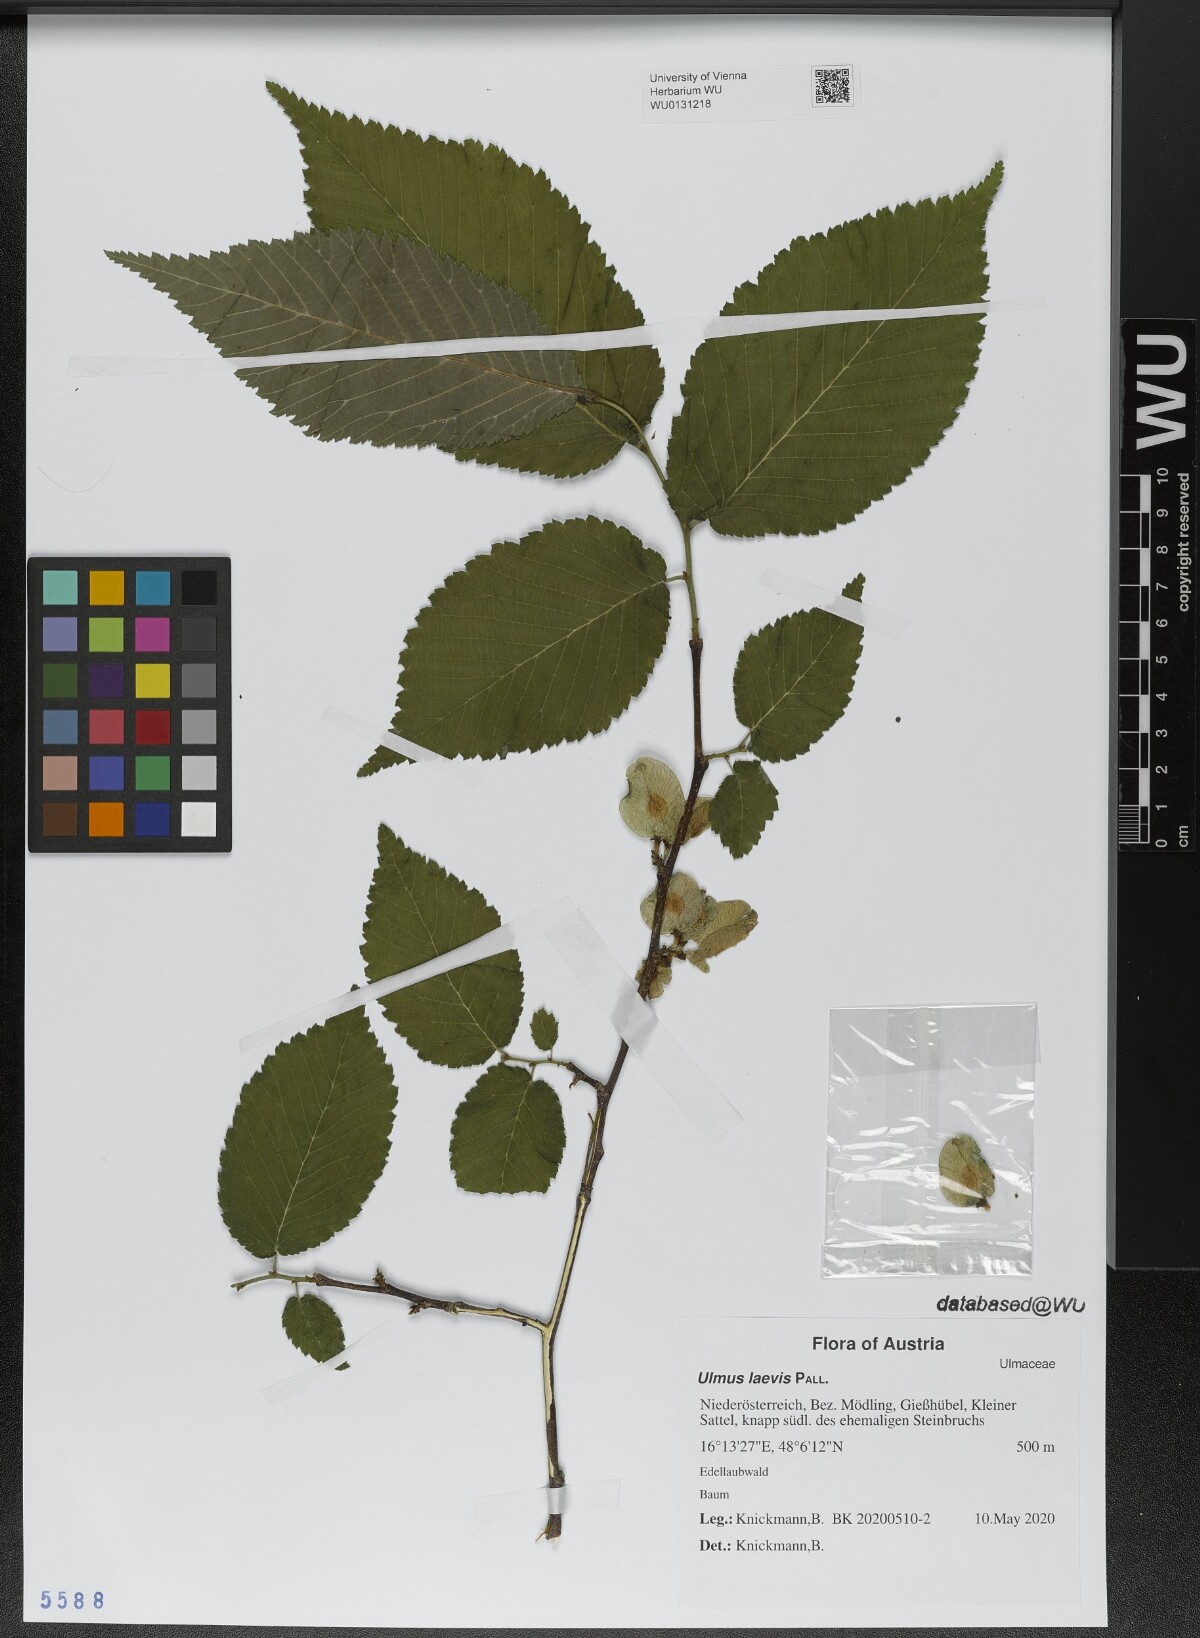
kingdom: Plantae
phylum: Tracheophyta
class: Magnoliopsida
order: Rosales
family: Ulmaceae
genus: Ulmus
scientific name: Ulmus laevis
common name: European white-elm
